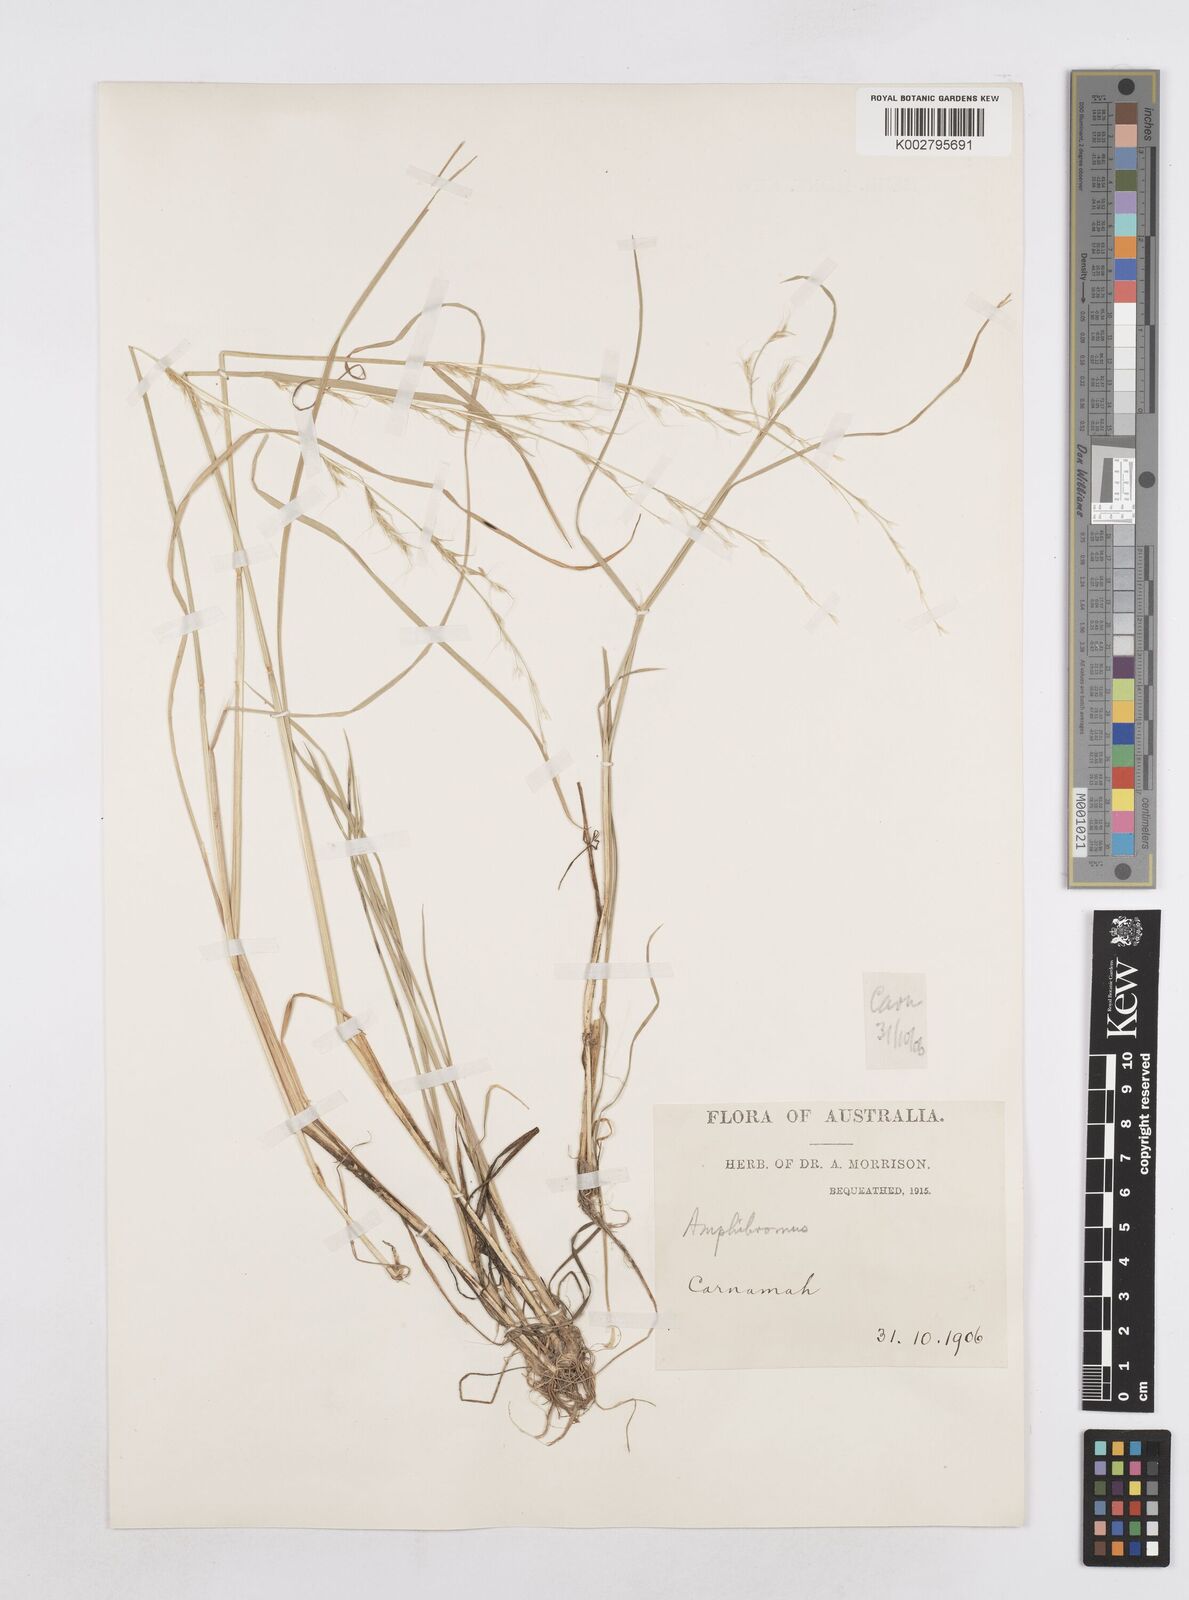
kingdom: Plantae
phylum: Tracheophyta
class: Liliopsida
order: Poales
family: Poaceae
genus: Amphibromus
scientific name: Amphibromus neesii
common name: Australian wallaby grass
